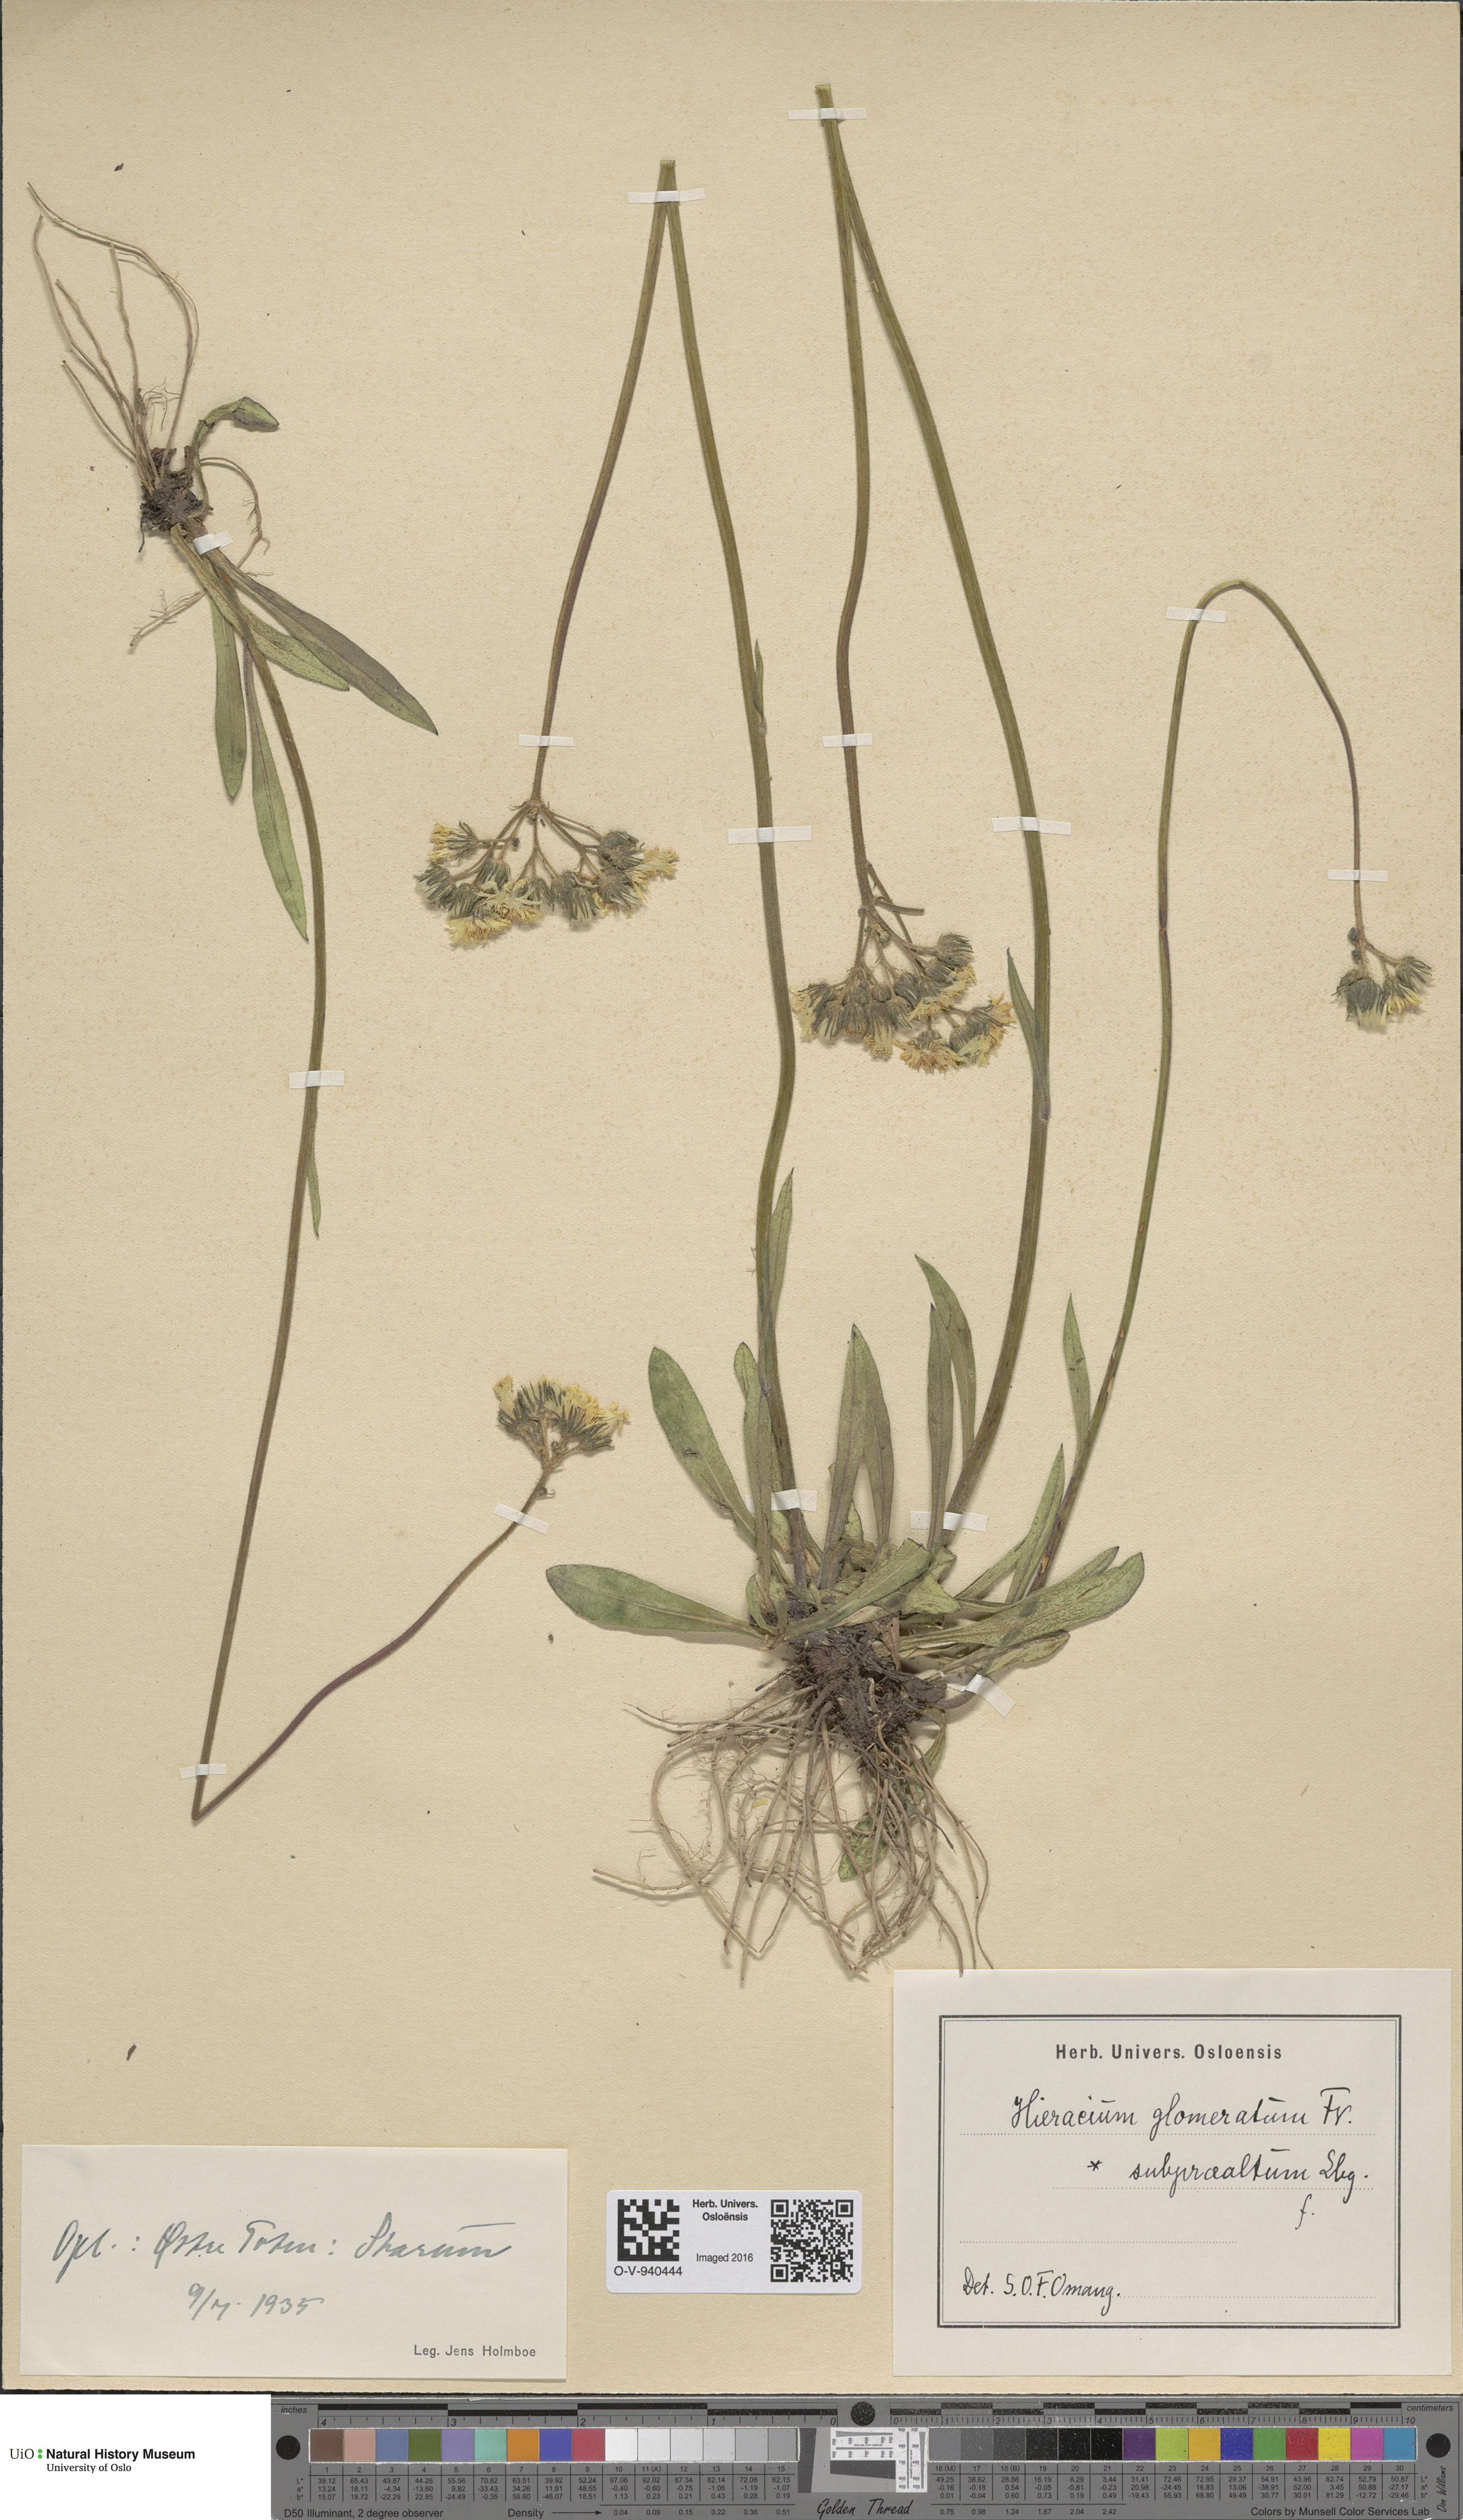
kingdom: Plantae
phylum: Tracheophyta
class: Magnoliopsida
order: Asterales
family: Asteraceae
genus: Pilosella
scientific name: Pilosella glomerata
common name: Queen devil hawkweed
